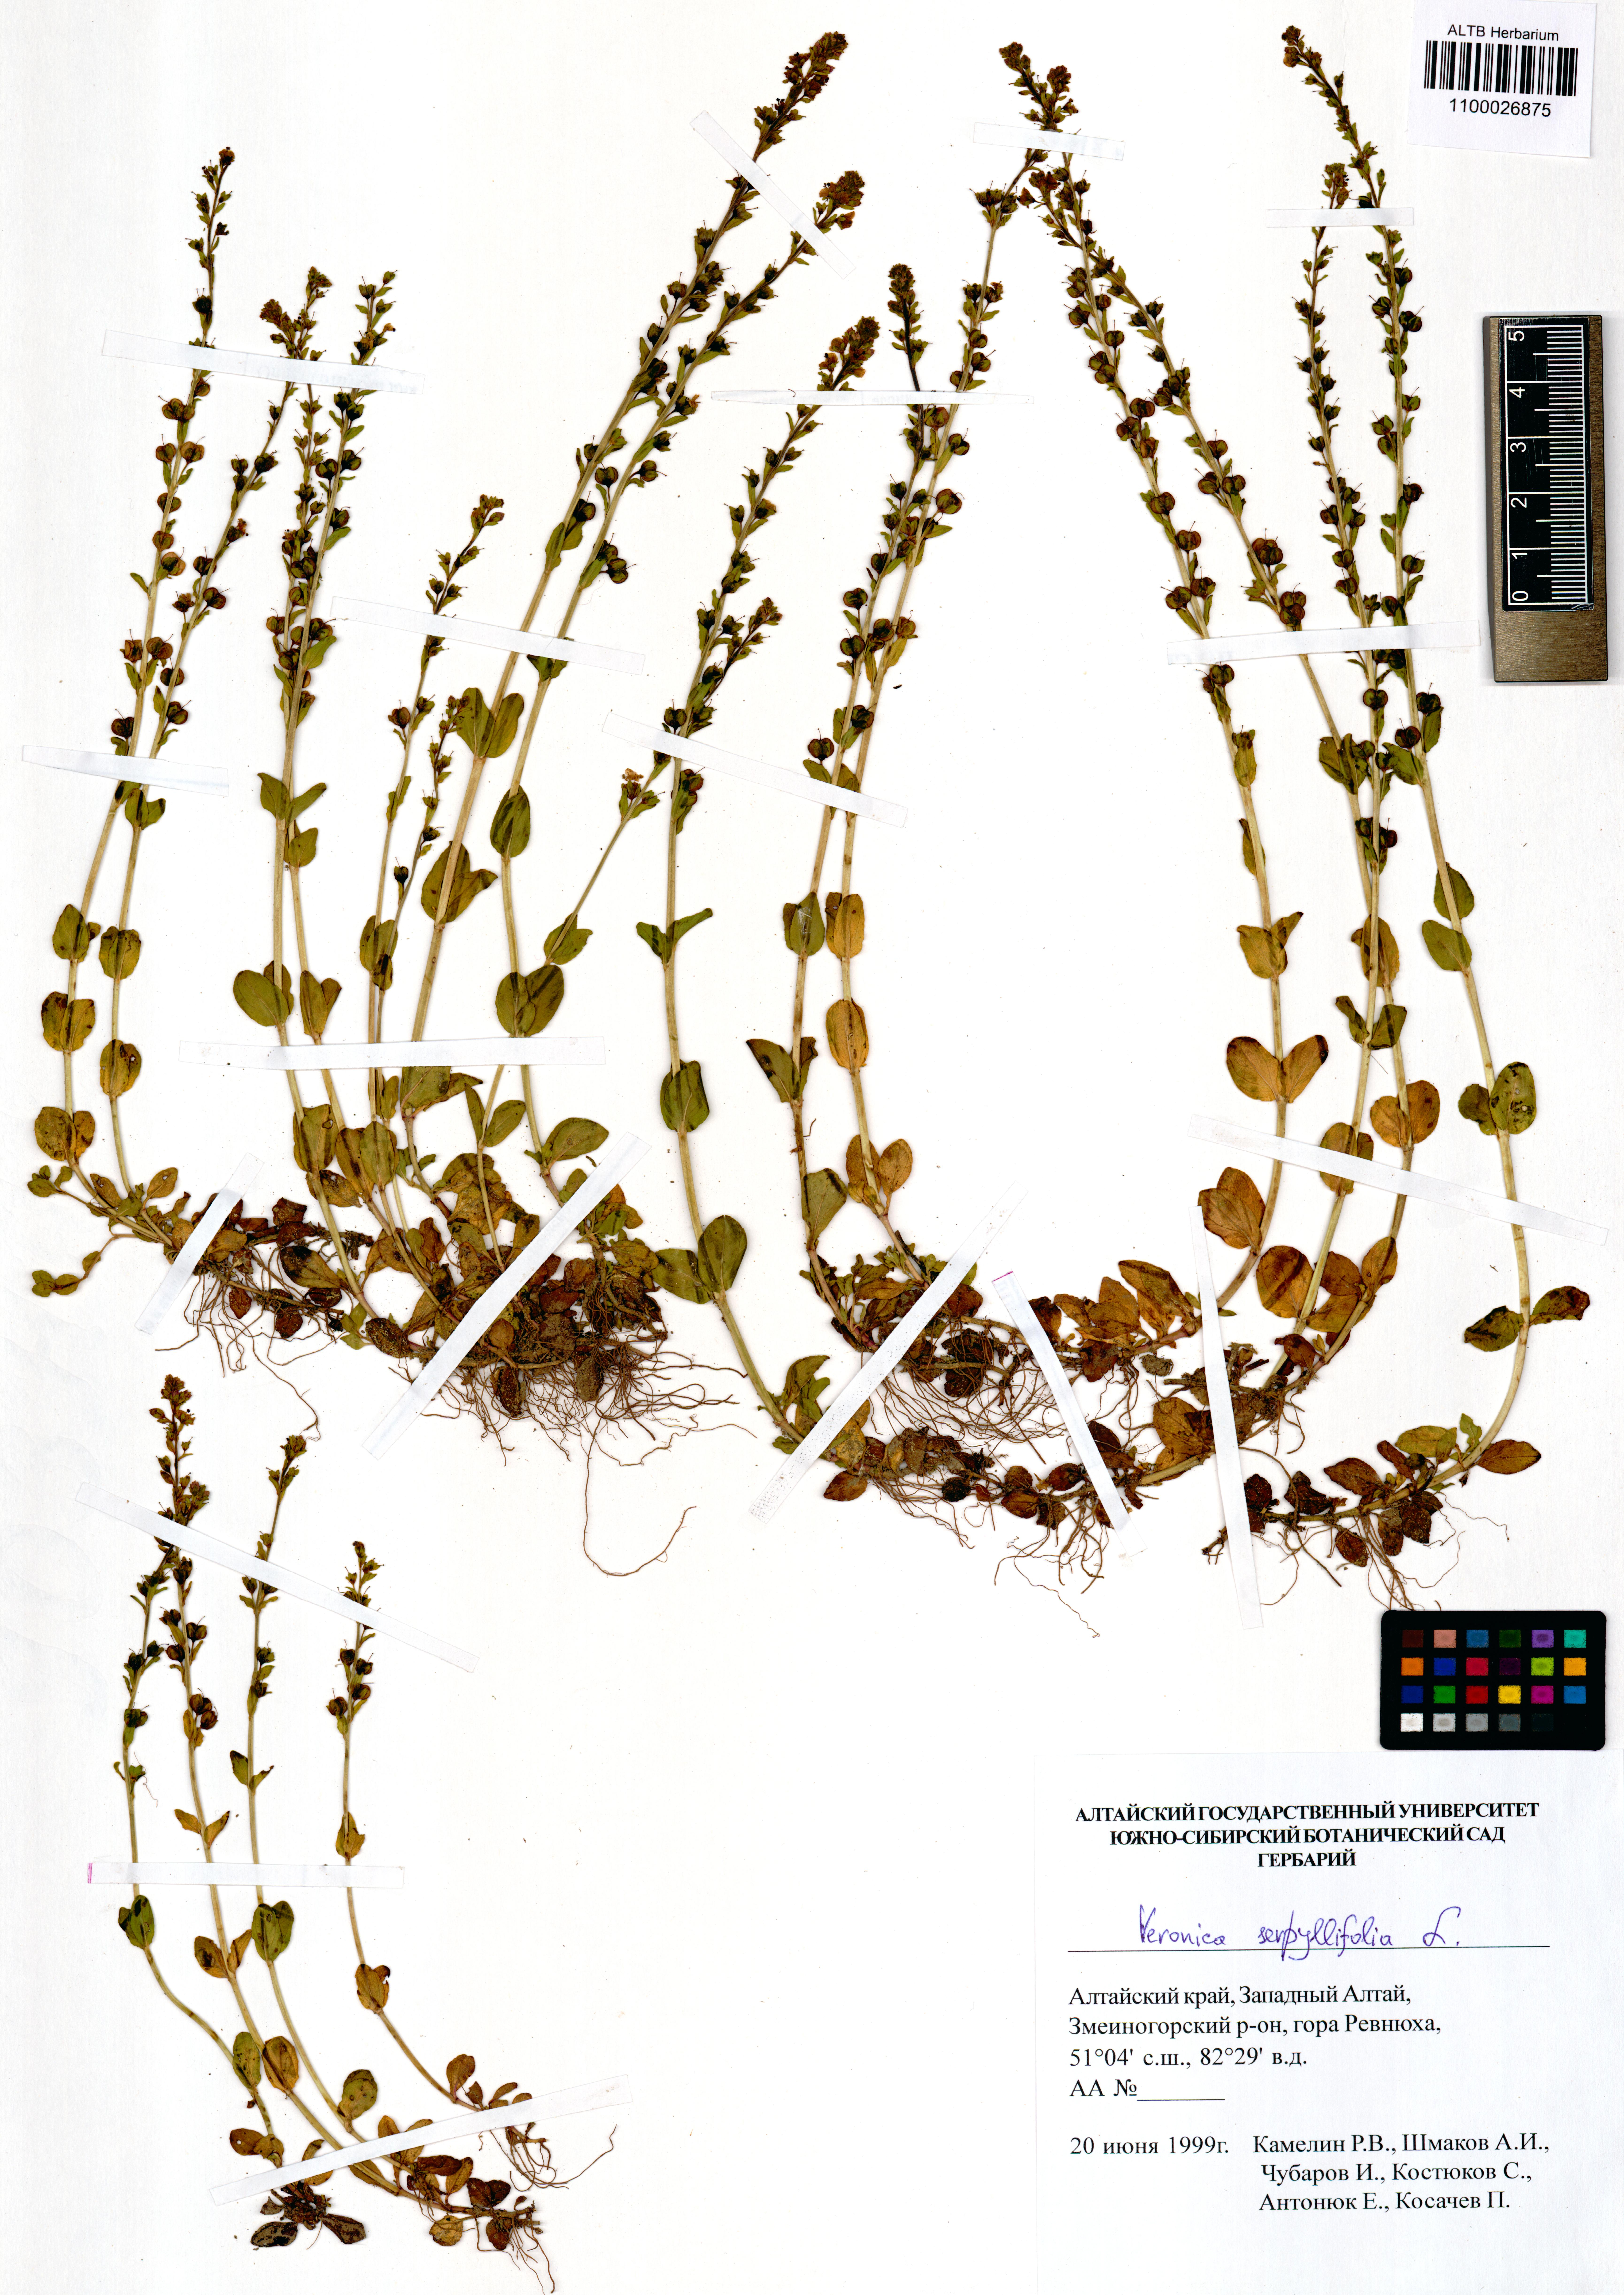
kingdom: Plantae
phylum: Tracheophyta
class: Magnoliopsida
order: Lamiales
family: Plantaginaceae
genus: Veronica
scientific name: Veronica serpyllifolia
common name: Thyme-leaved speedwell
